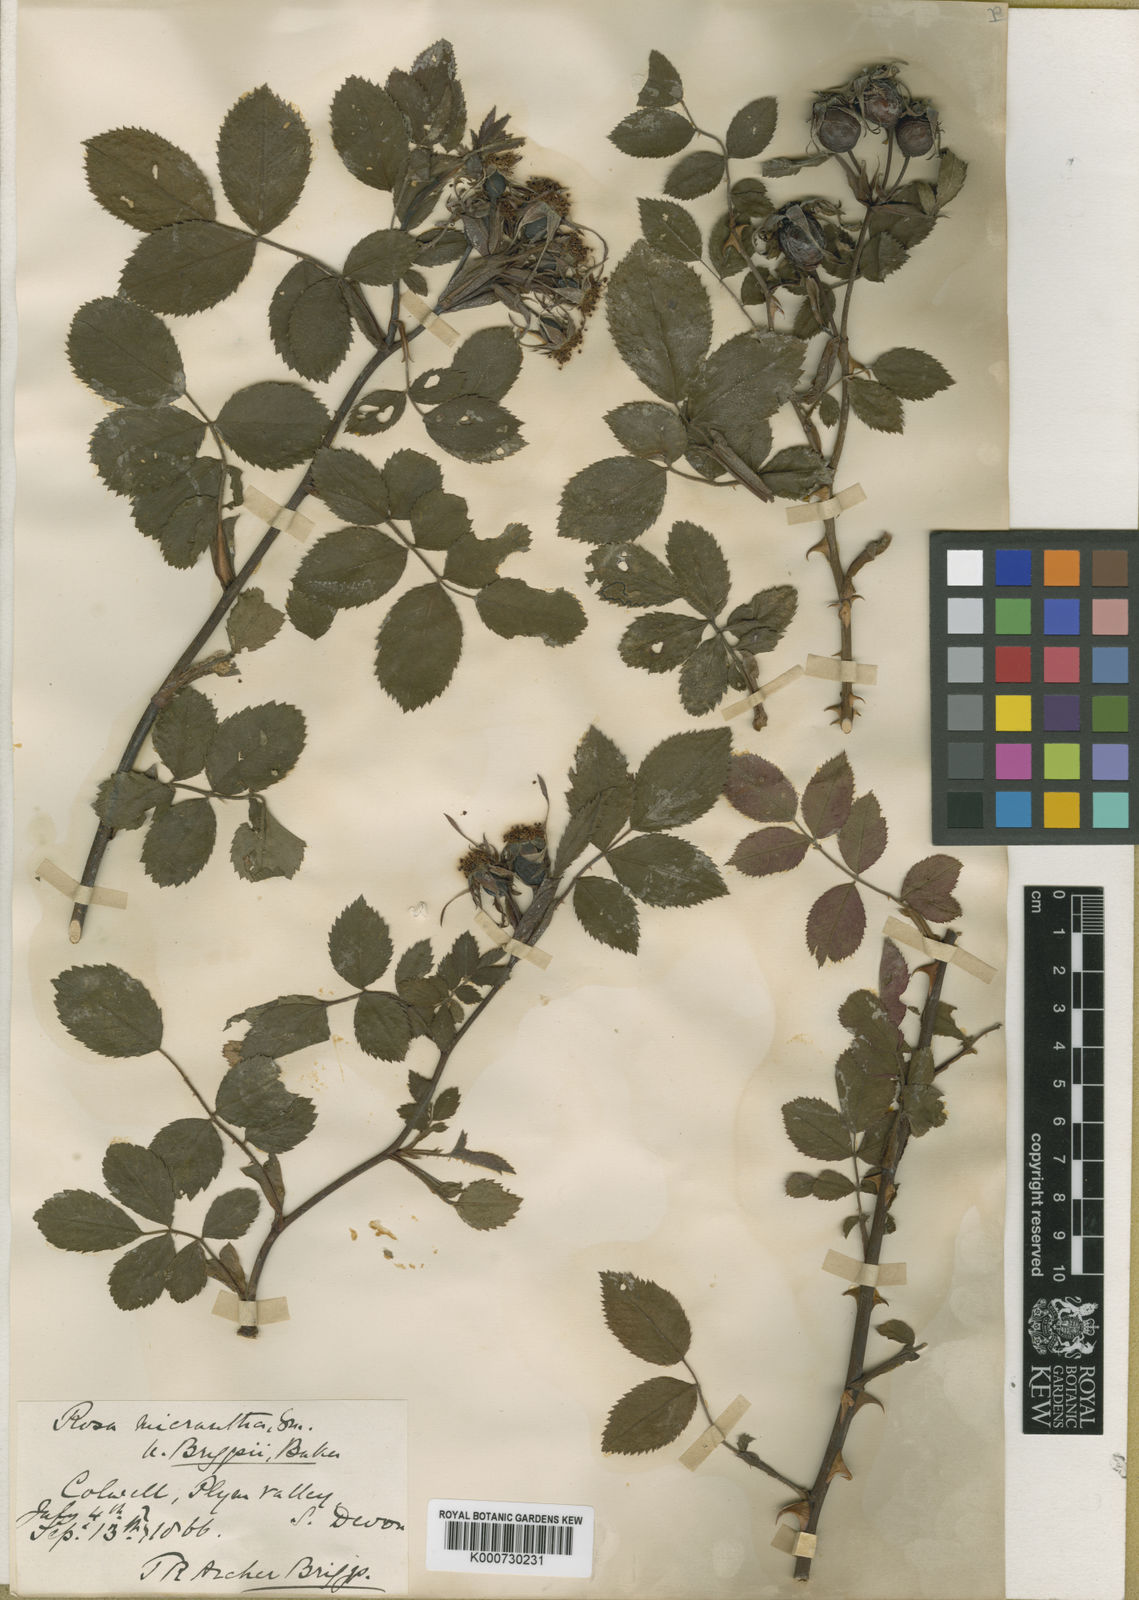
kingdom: Plantae
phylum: Tracheophyta
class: Magnoliopsida
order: Rosales
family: Rosaceae
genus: Rosa
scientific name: Rosa micrantha
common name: Small-flowered sweet-briar
